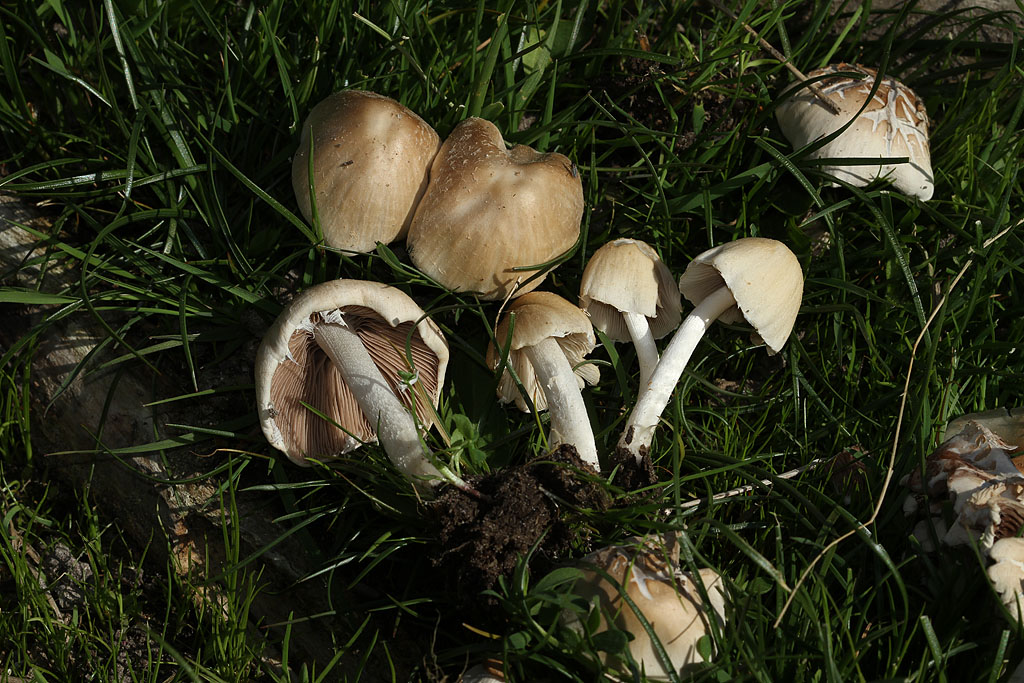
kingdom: Fungi
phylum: Basidiomycota
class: Agaricomycetes
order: Agaricales
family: Psathyrellaceae
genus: Candolleomyces
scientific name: Candolleomyces candolleanus
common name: Candolles mørkhat
